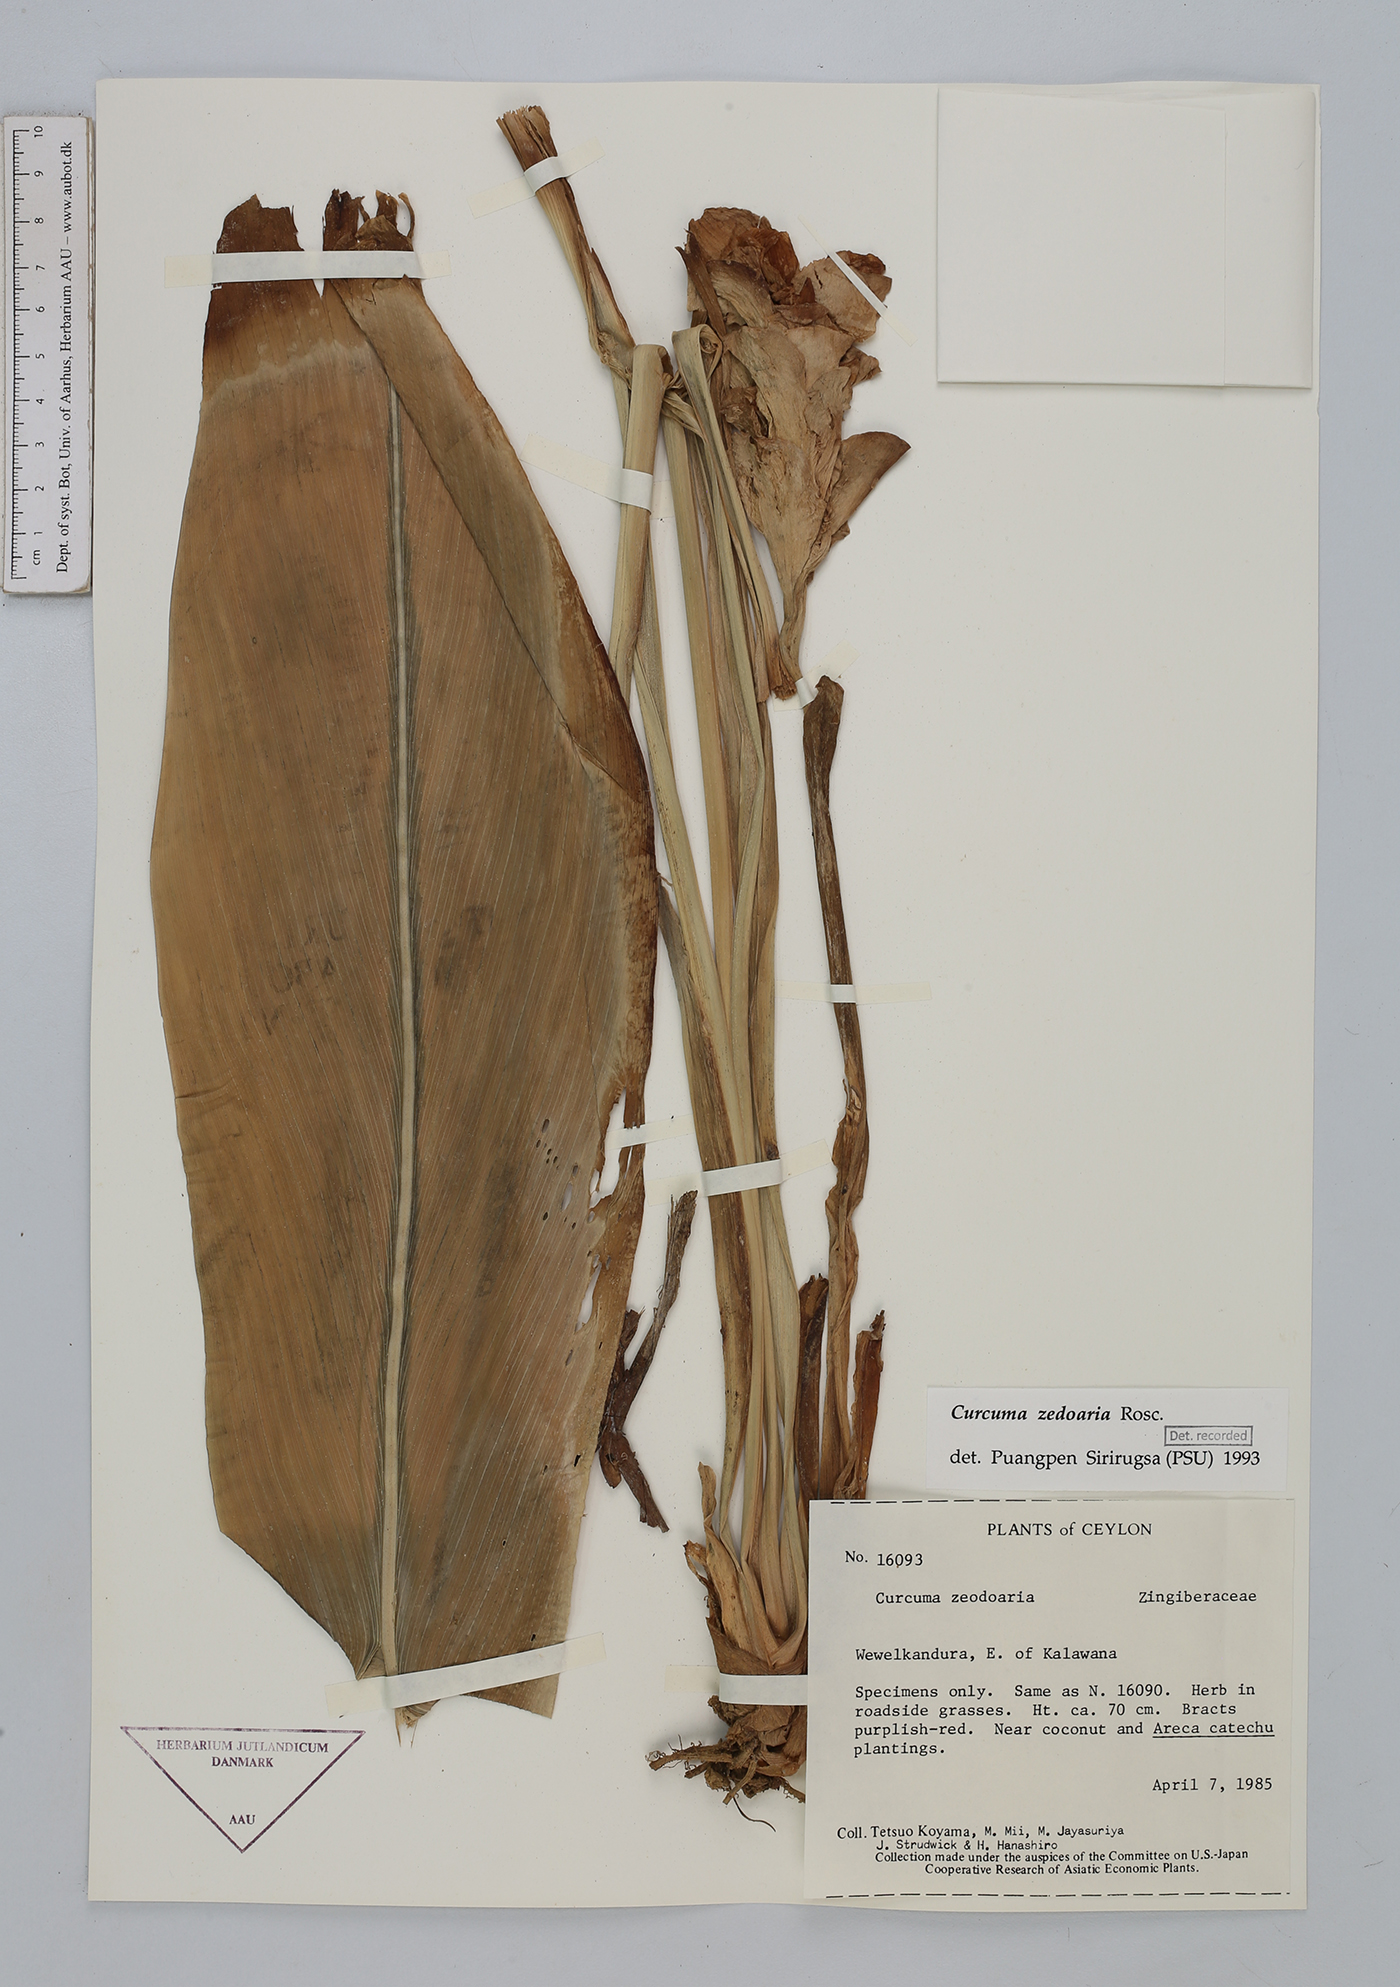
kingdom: Plantae
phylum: Tracheophyta
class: Liliopsida
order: Zingiberales
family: Zingiberaceae
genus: Curcuma
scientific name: Curcuma zedoaria
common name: Zedoary
